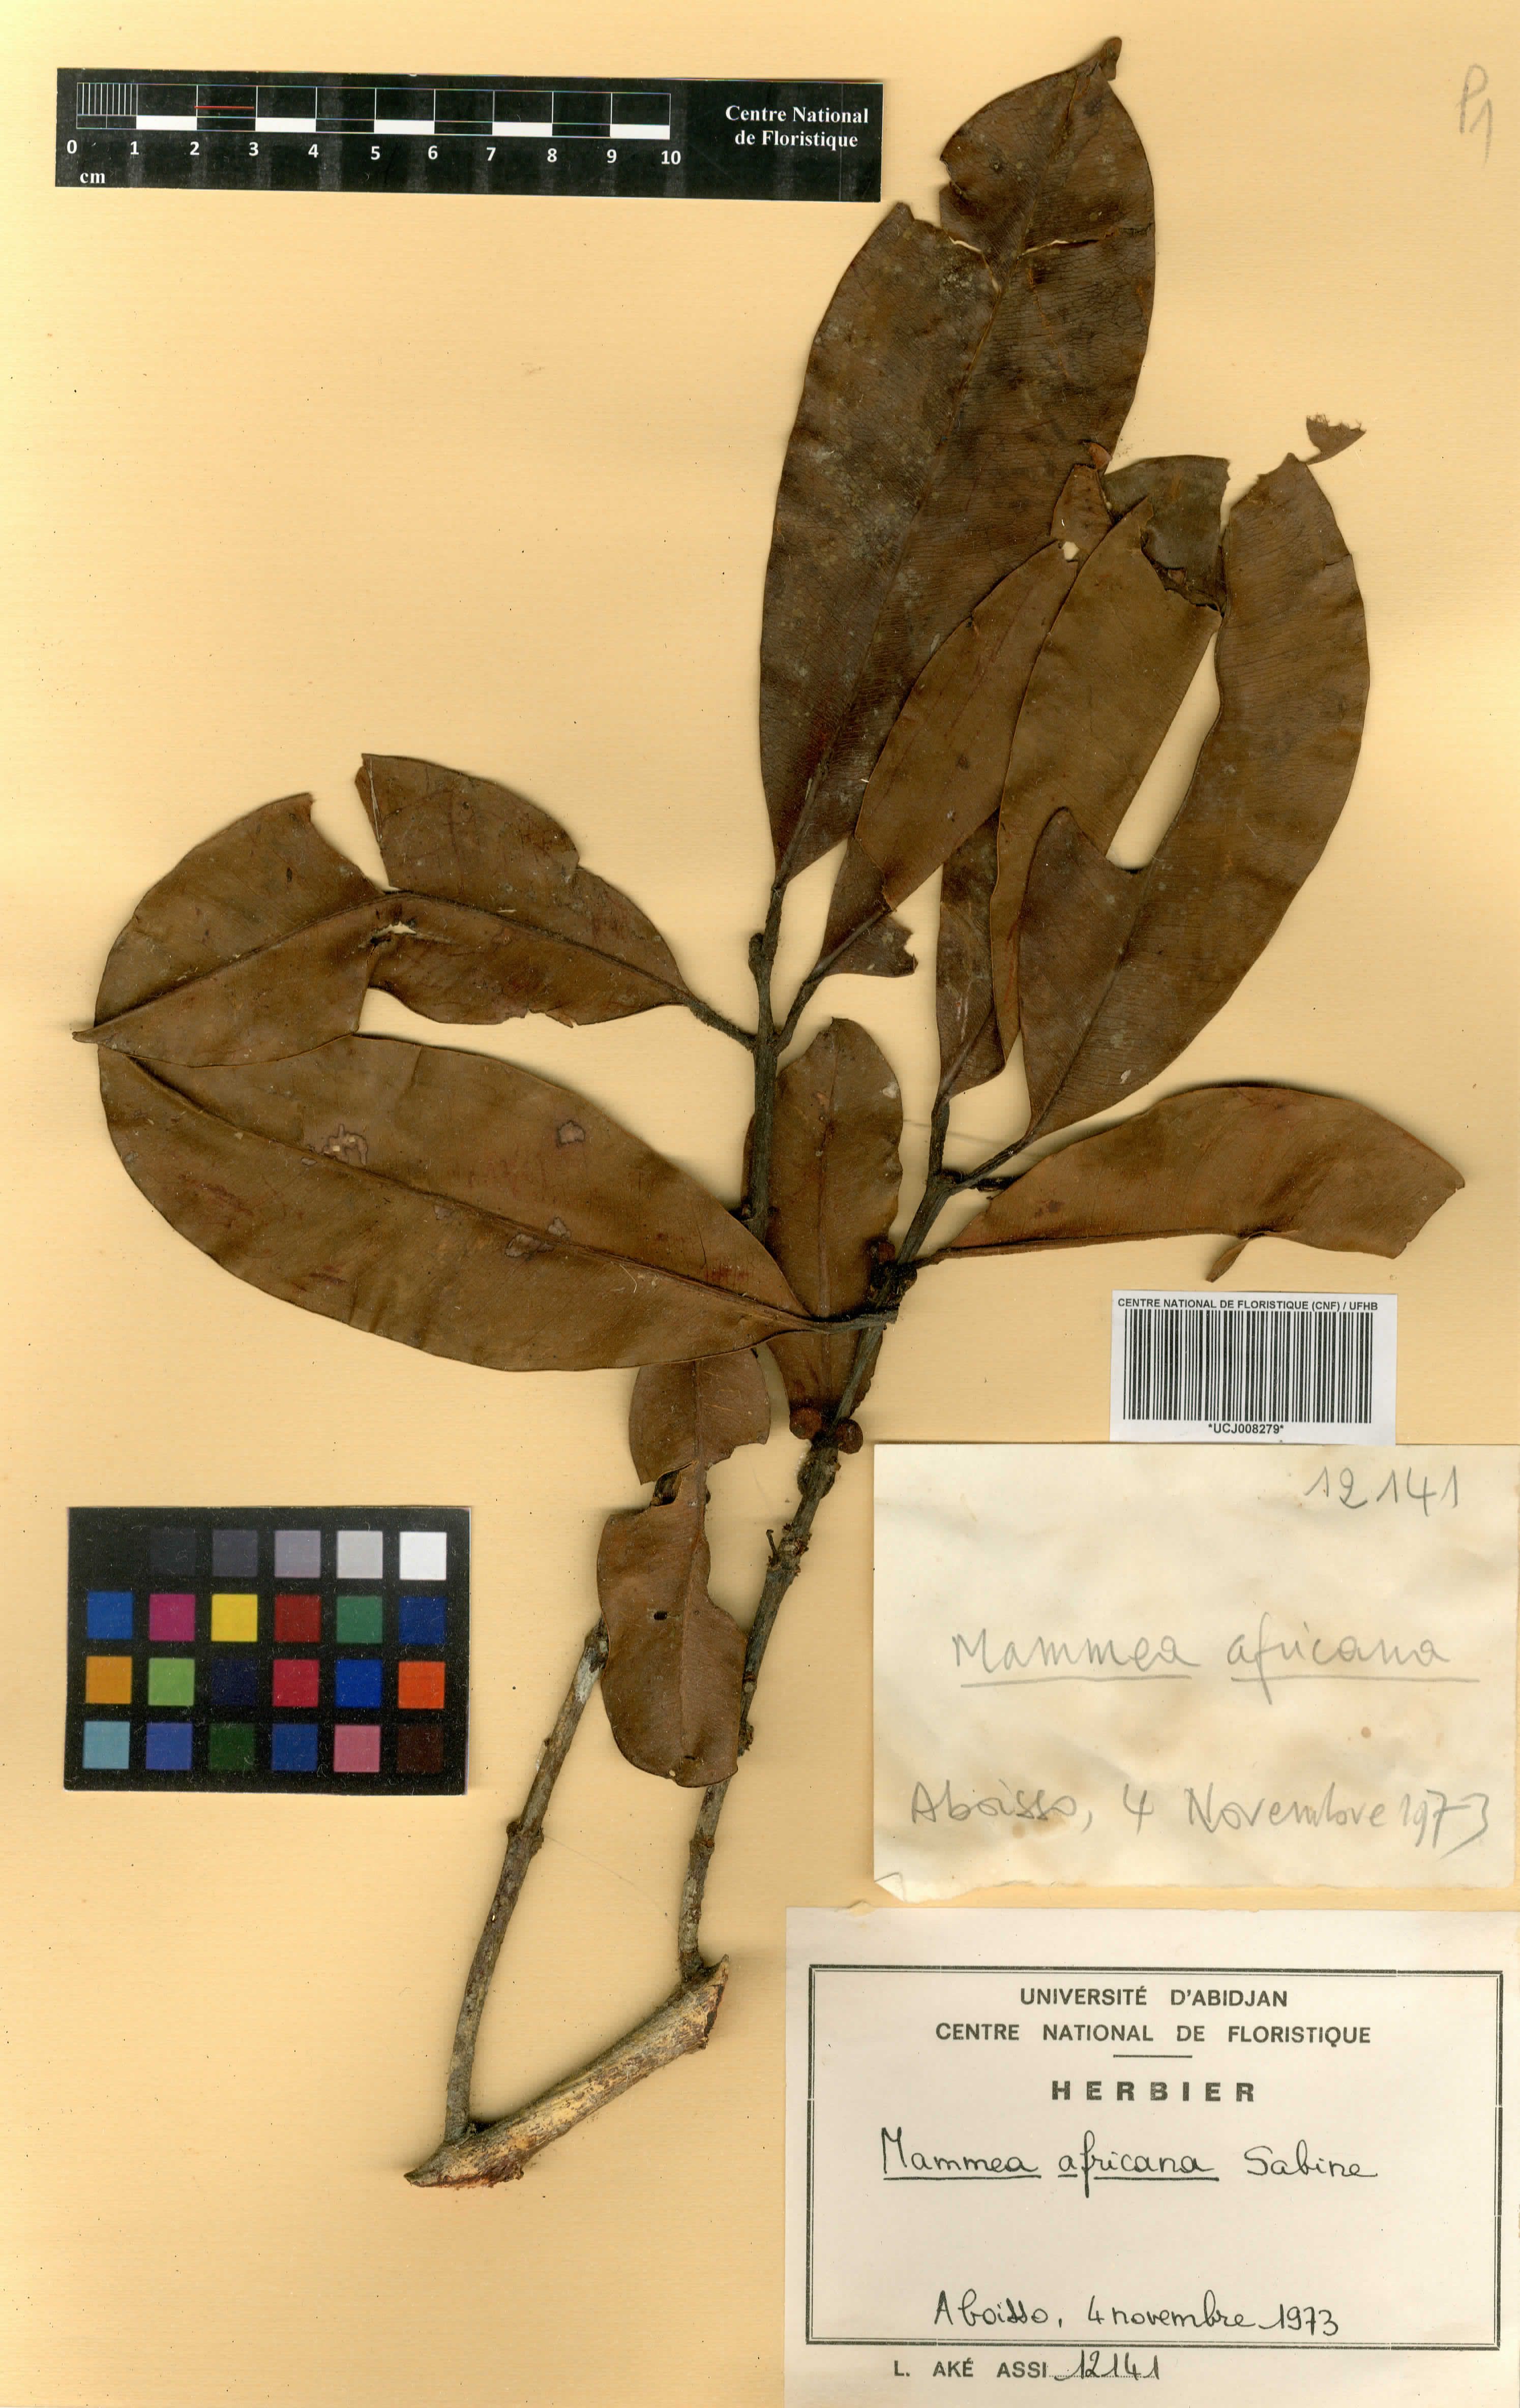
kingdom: Plantae
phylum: Tracheophyta
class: Magnoliopsida
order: Malpighiales
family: Calophyllaceae
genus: Mammea
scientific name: Mammea africana
